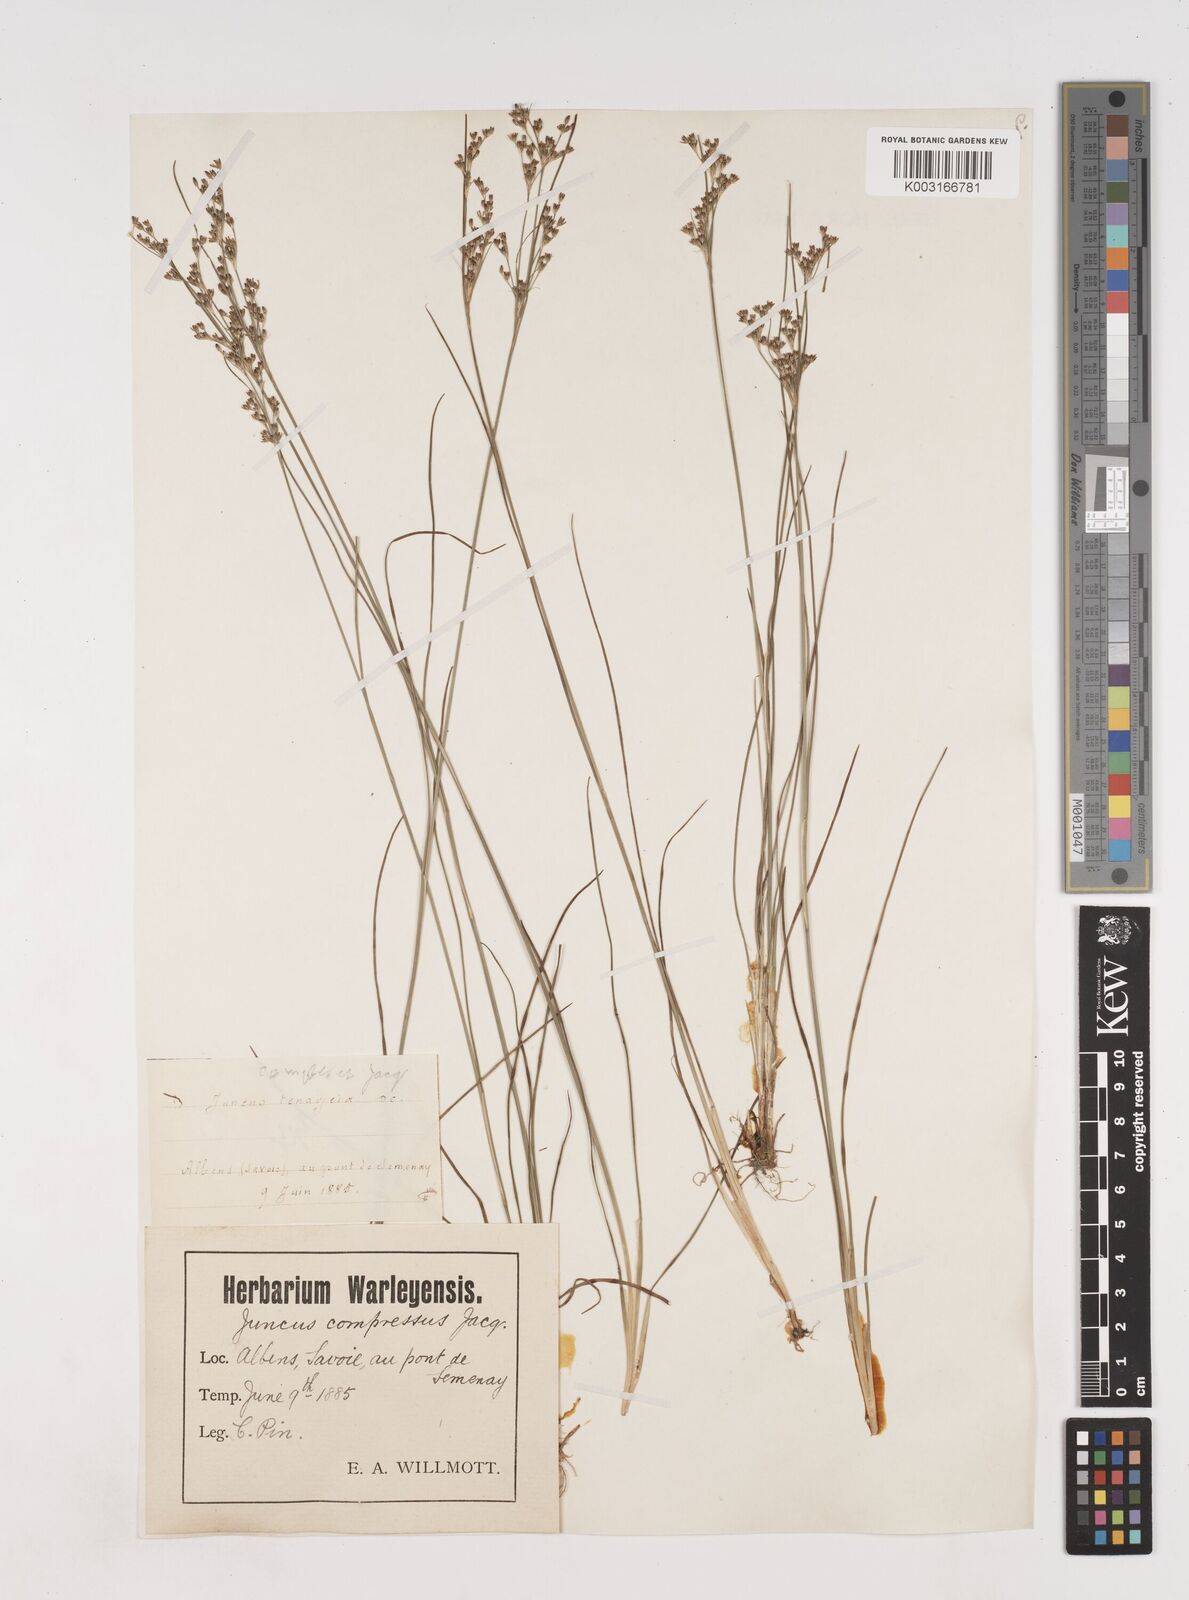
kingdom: Plantae
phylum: Tracheophyta
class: Liliopsida
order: Poales
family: Juncaceae
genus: Juncus
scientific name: Juncus compressus
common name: Round-fruited rush
